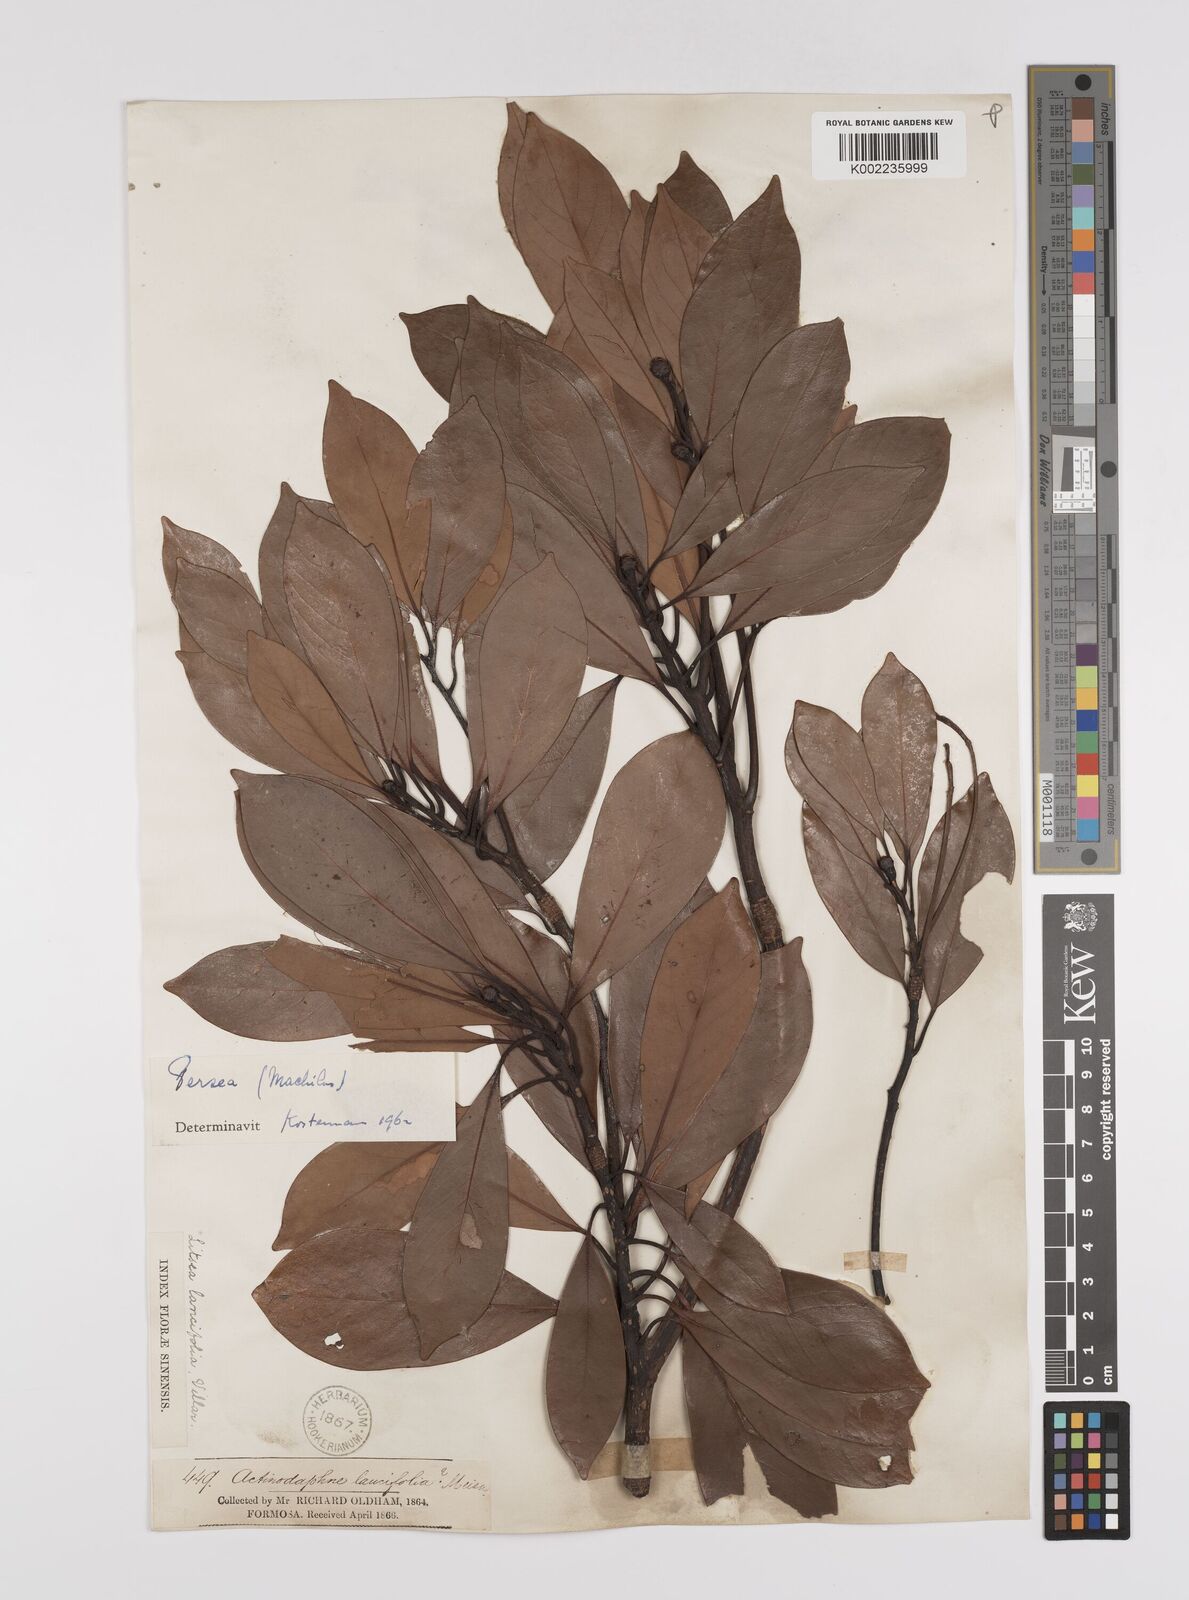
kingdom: Plantae
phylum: Tracheophyta
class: Magnoliopsida
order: Laurales
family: Lauraceae
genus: Persea
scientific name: Persea
